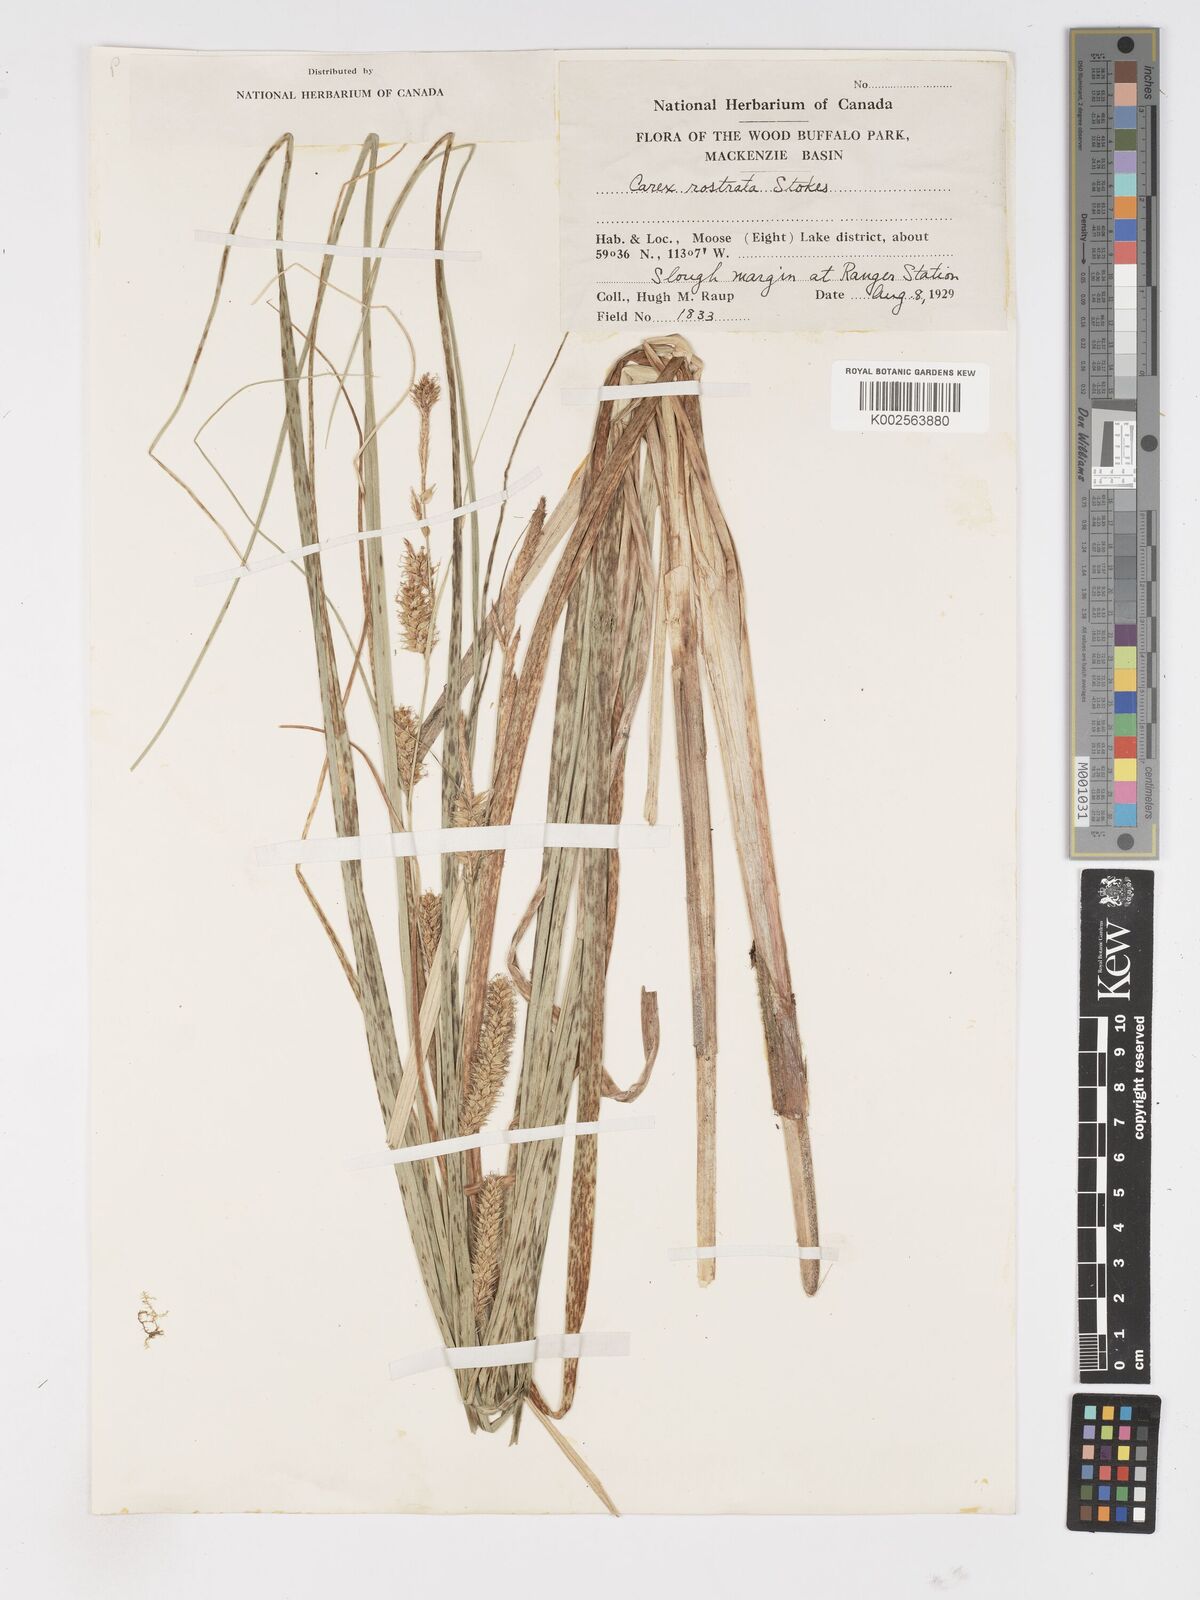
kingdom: Plantae
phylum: Tracheophyta
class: Liliopsida
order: Poales
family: Cyperaceae
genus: Carex
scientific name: Carex rostrata
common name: Bottle sedge
